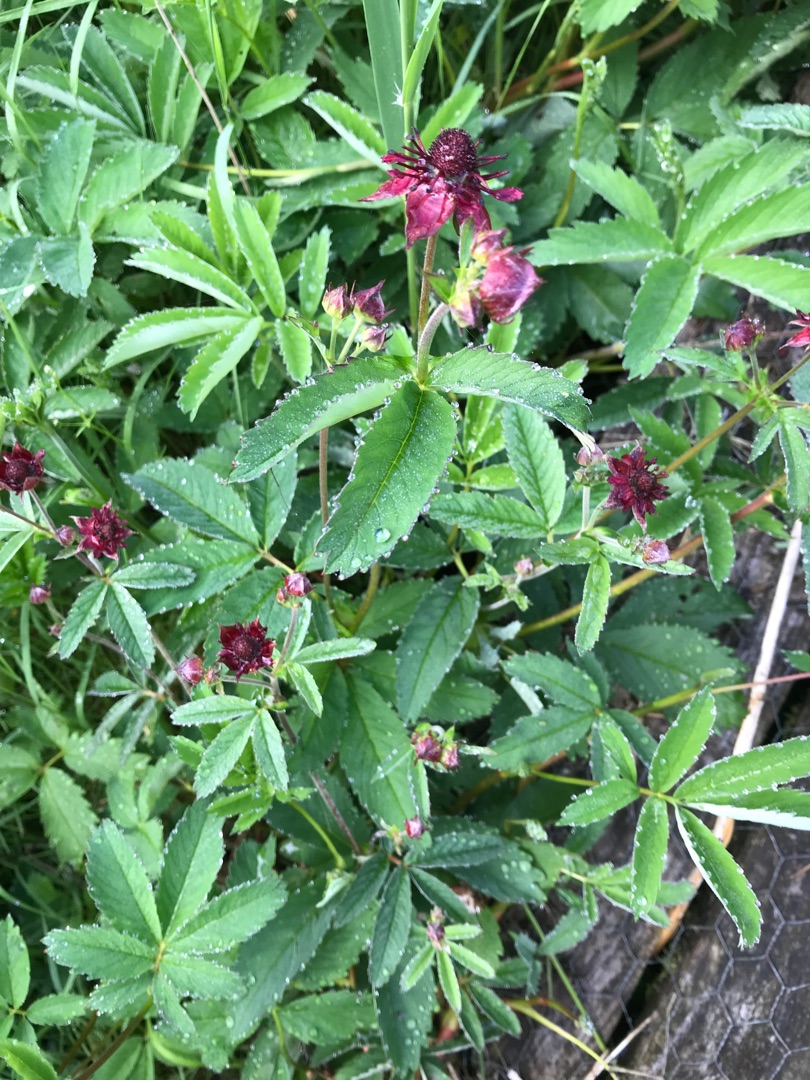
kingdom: Plantae
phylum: Tracheophyta
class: Magnoliopsida
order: Rosales
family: Rosaceae
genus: Comarum
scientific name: Comarum palustre
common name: Kragefod
